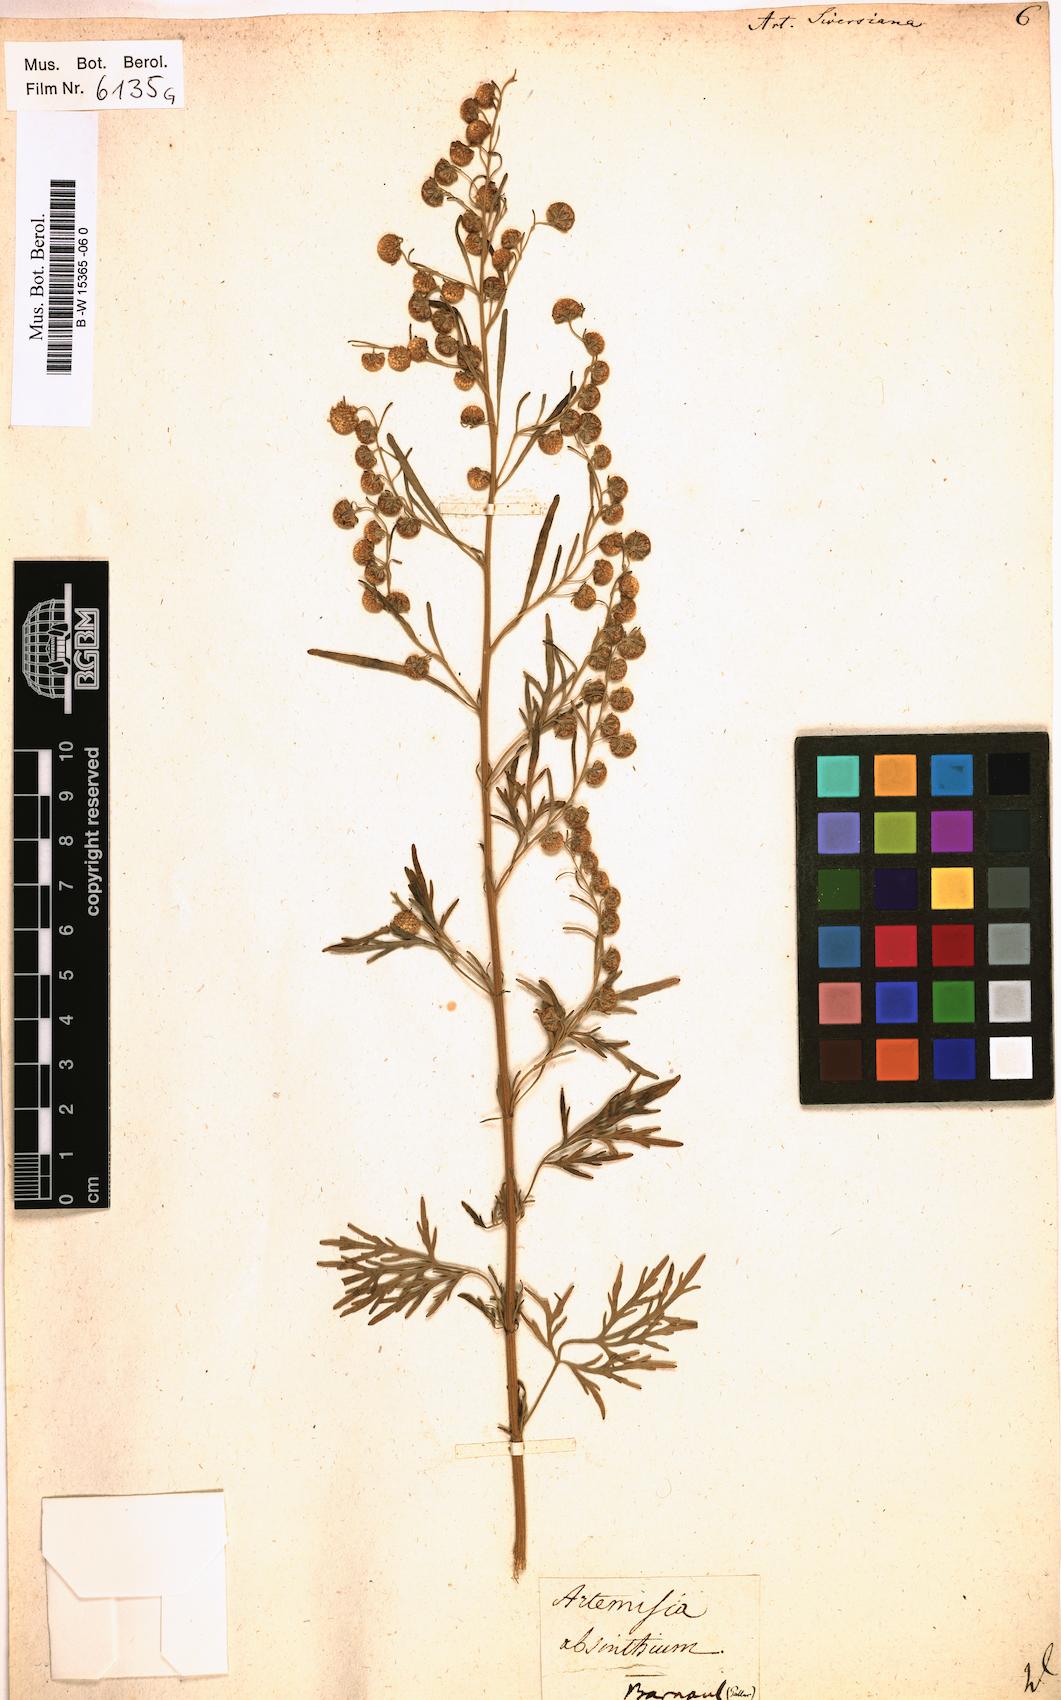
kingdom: Plantae
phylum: Tracheophyta
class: Magnoliopsida
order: Asterales
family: Asteraceae
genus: Artemisia
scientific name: Artemisia sieversiana
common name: Sieversian wormwood
